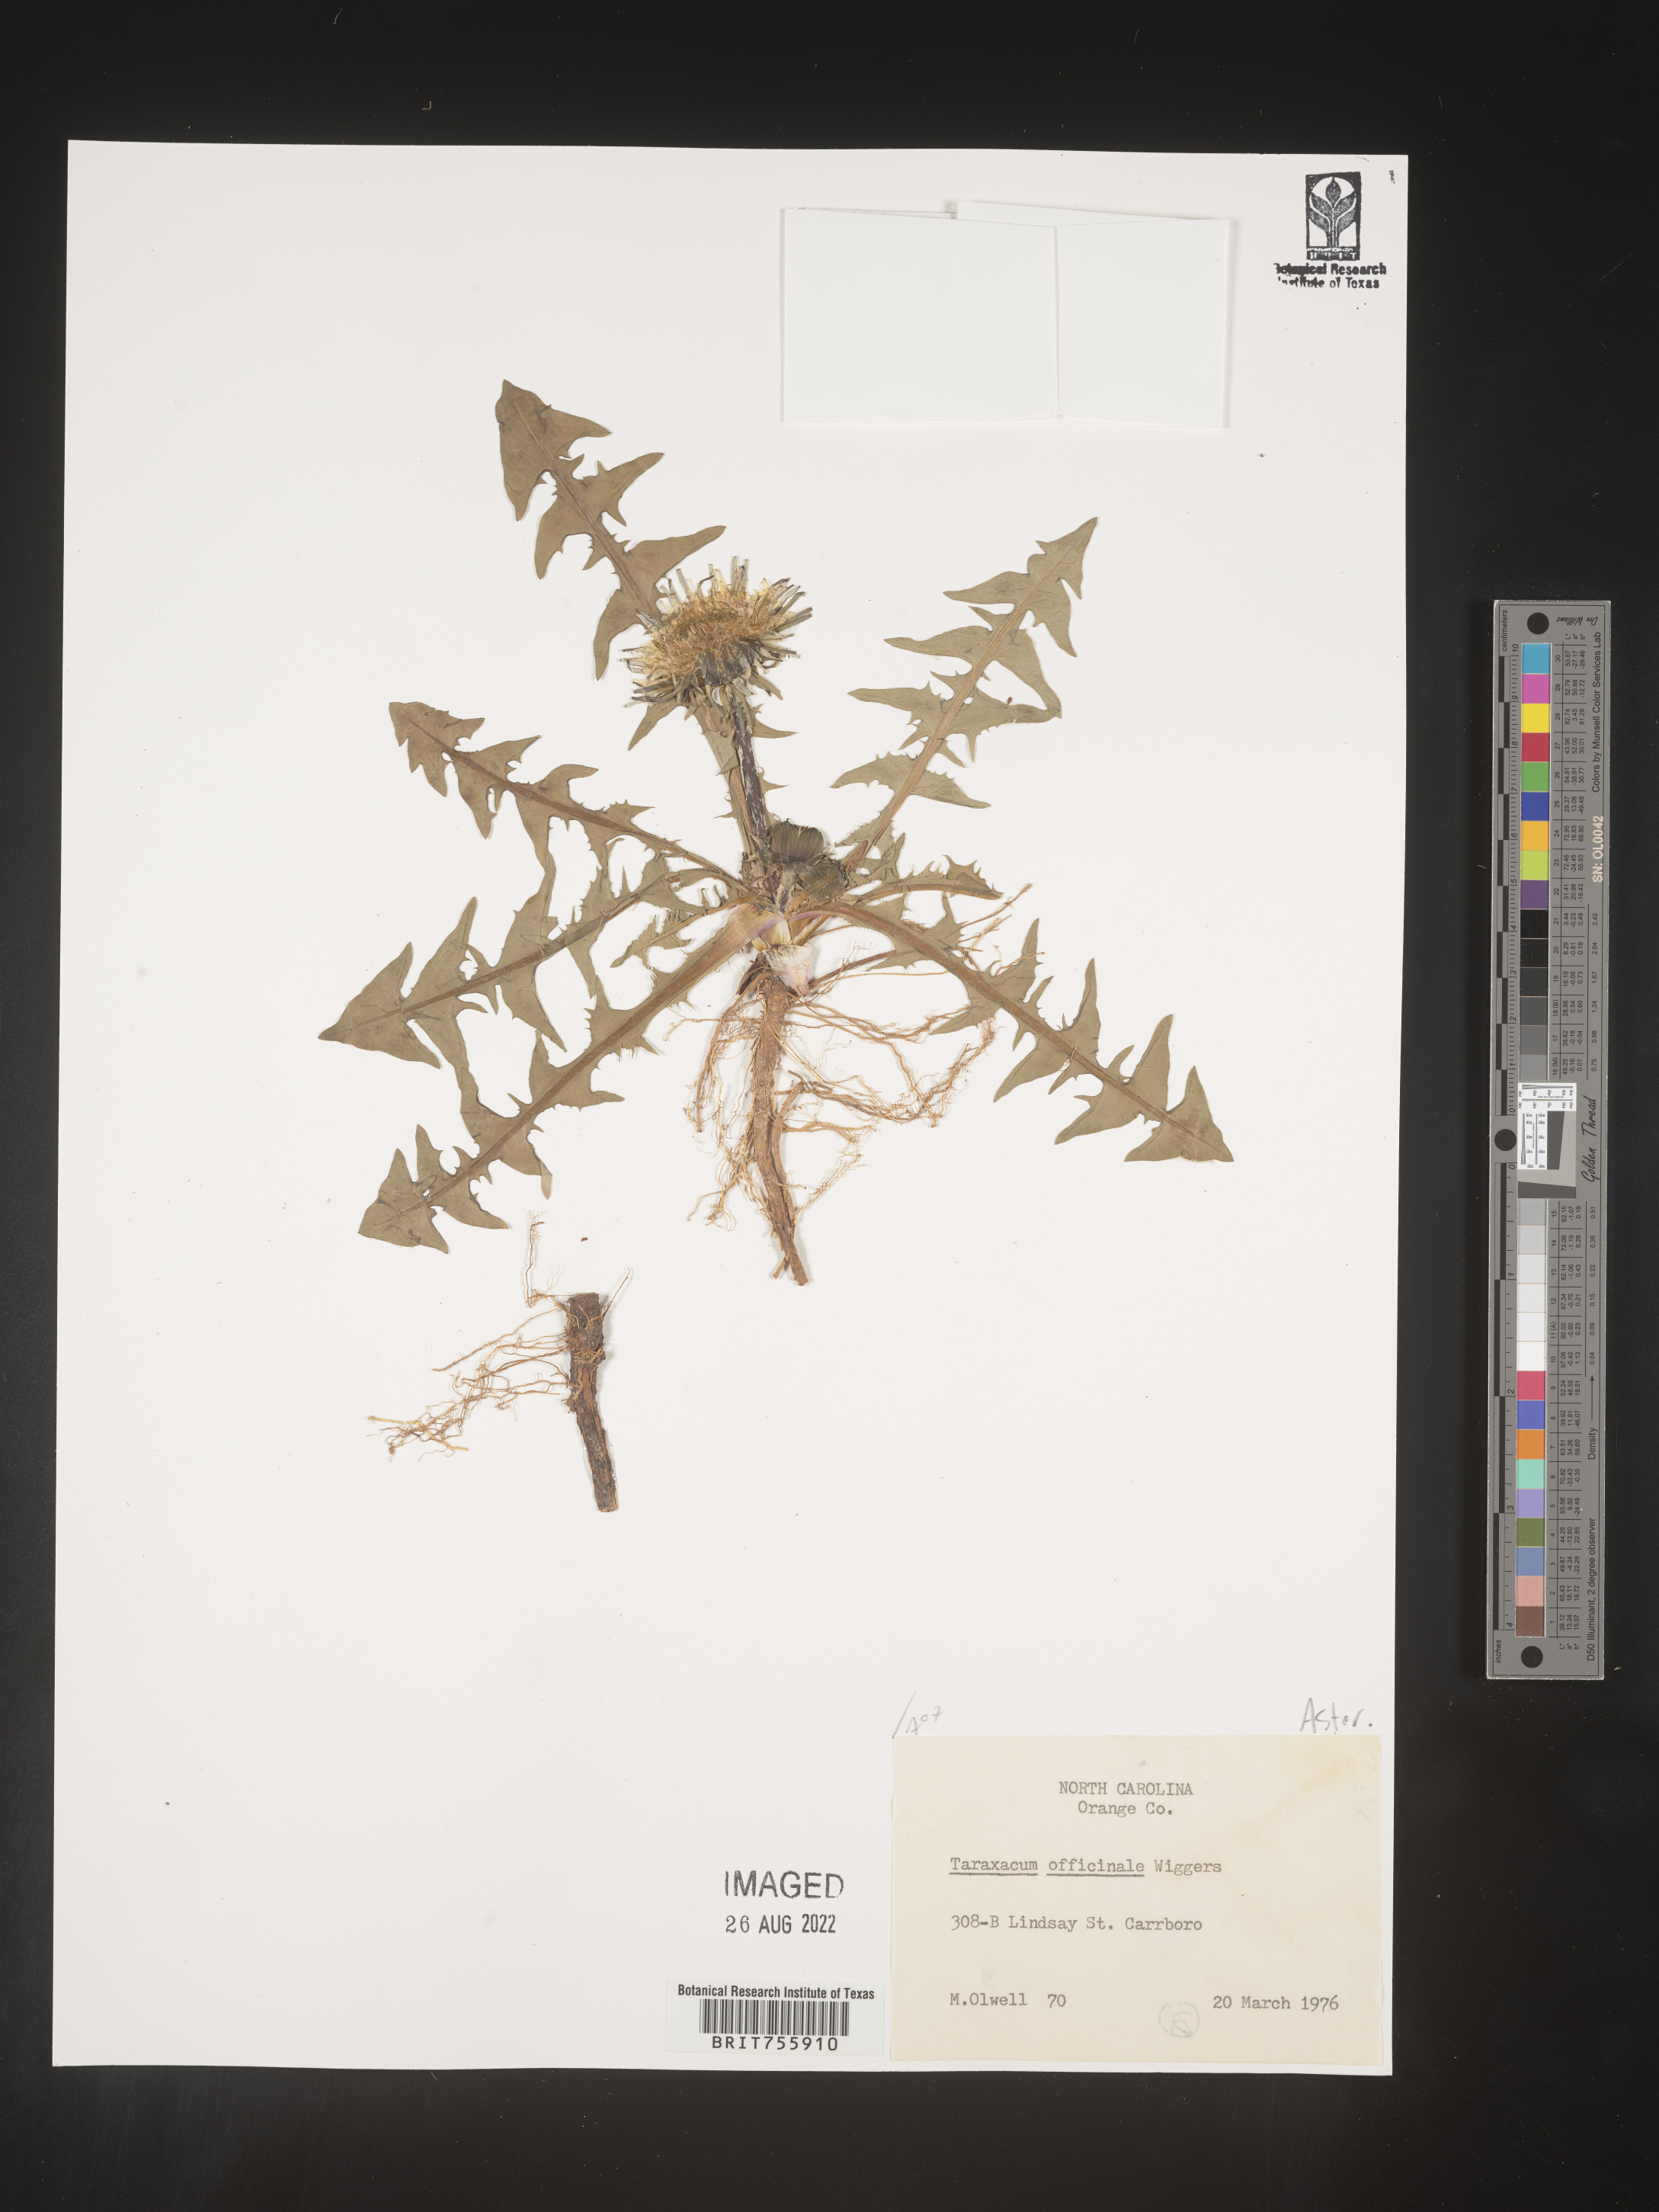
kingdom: Plantae
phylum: Tracheophyta
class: Magnoliopsida
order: Asterales
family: Asteraceae
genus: Taraxacum
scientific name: Taraxacum officinale
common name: Common dandelion
